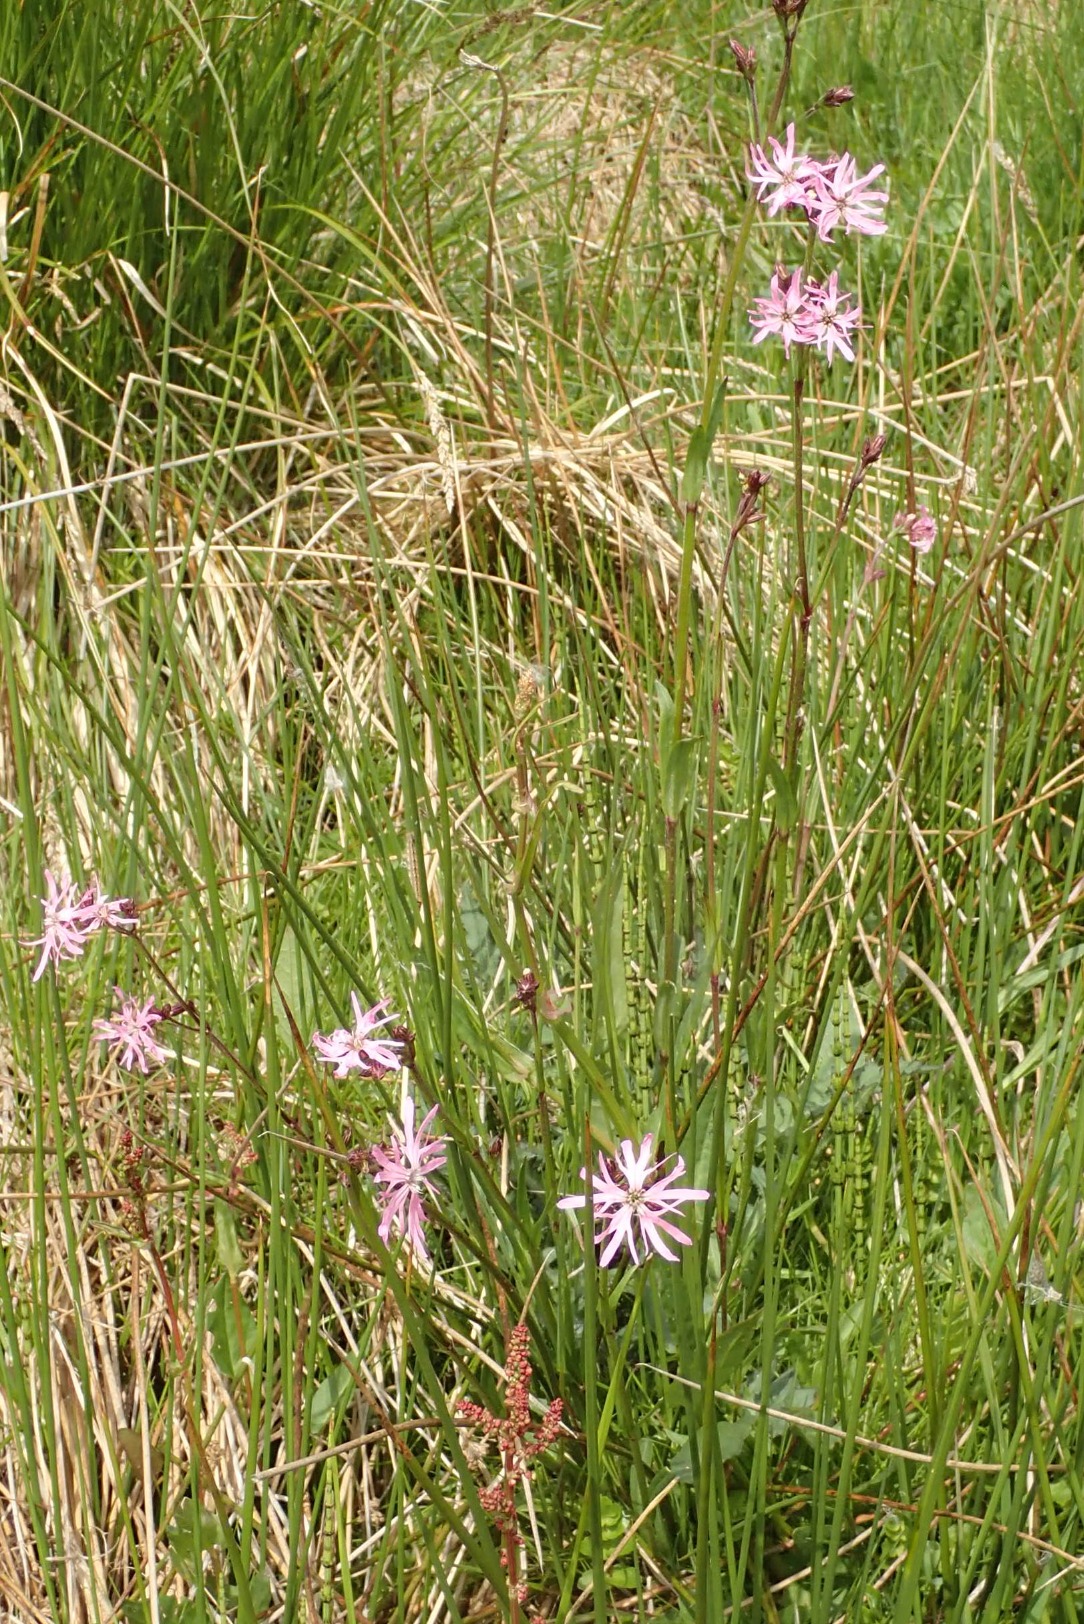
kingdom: Plantae
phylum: Tracheophyta
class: Magnoliopsida
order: Caryophyllales
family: Caryophyllaceae
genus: Silene
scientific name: Silene flos-cuculi
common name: Trævlekrone
